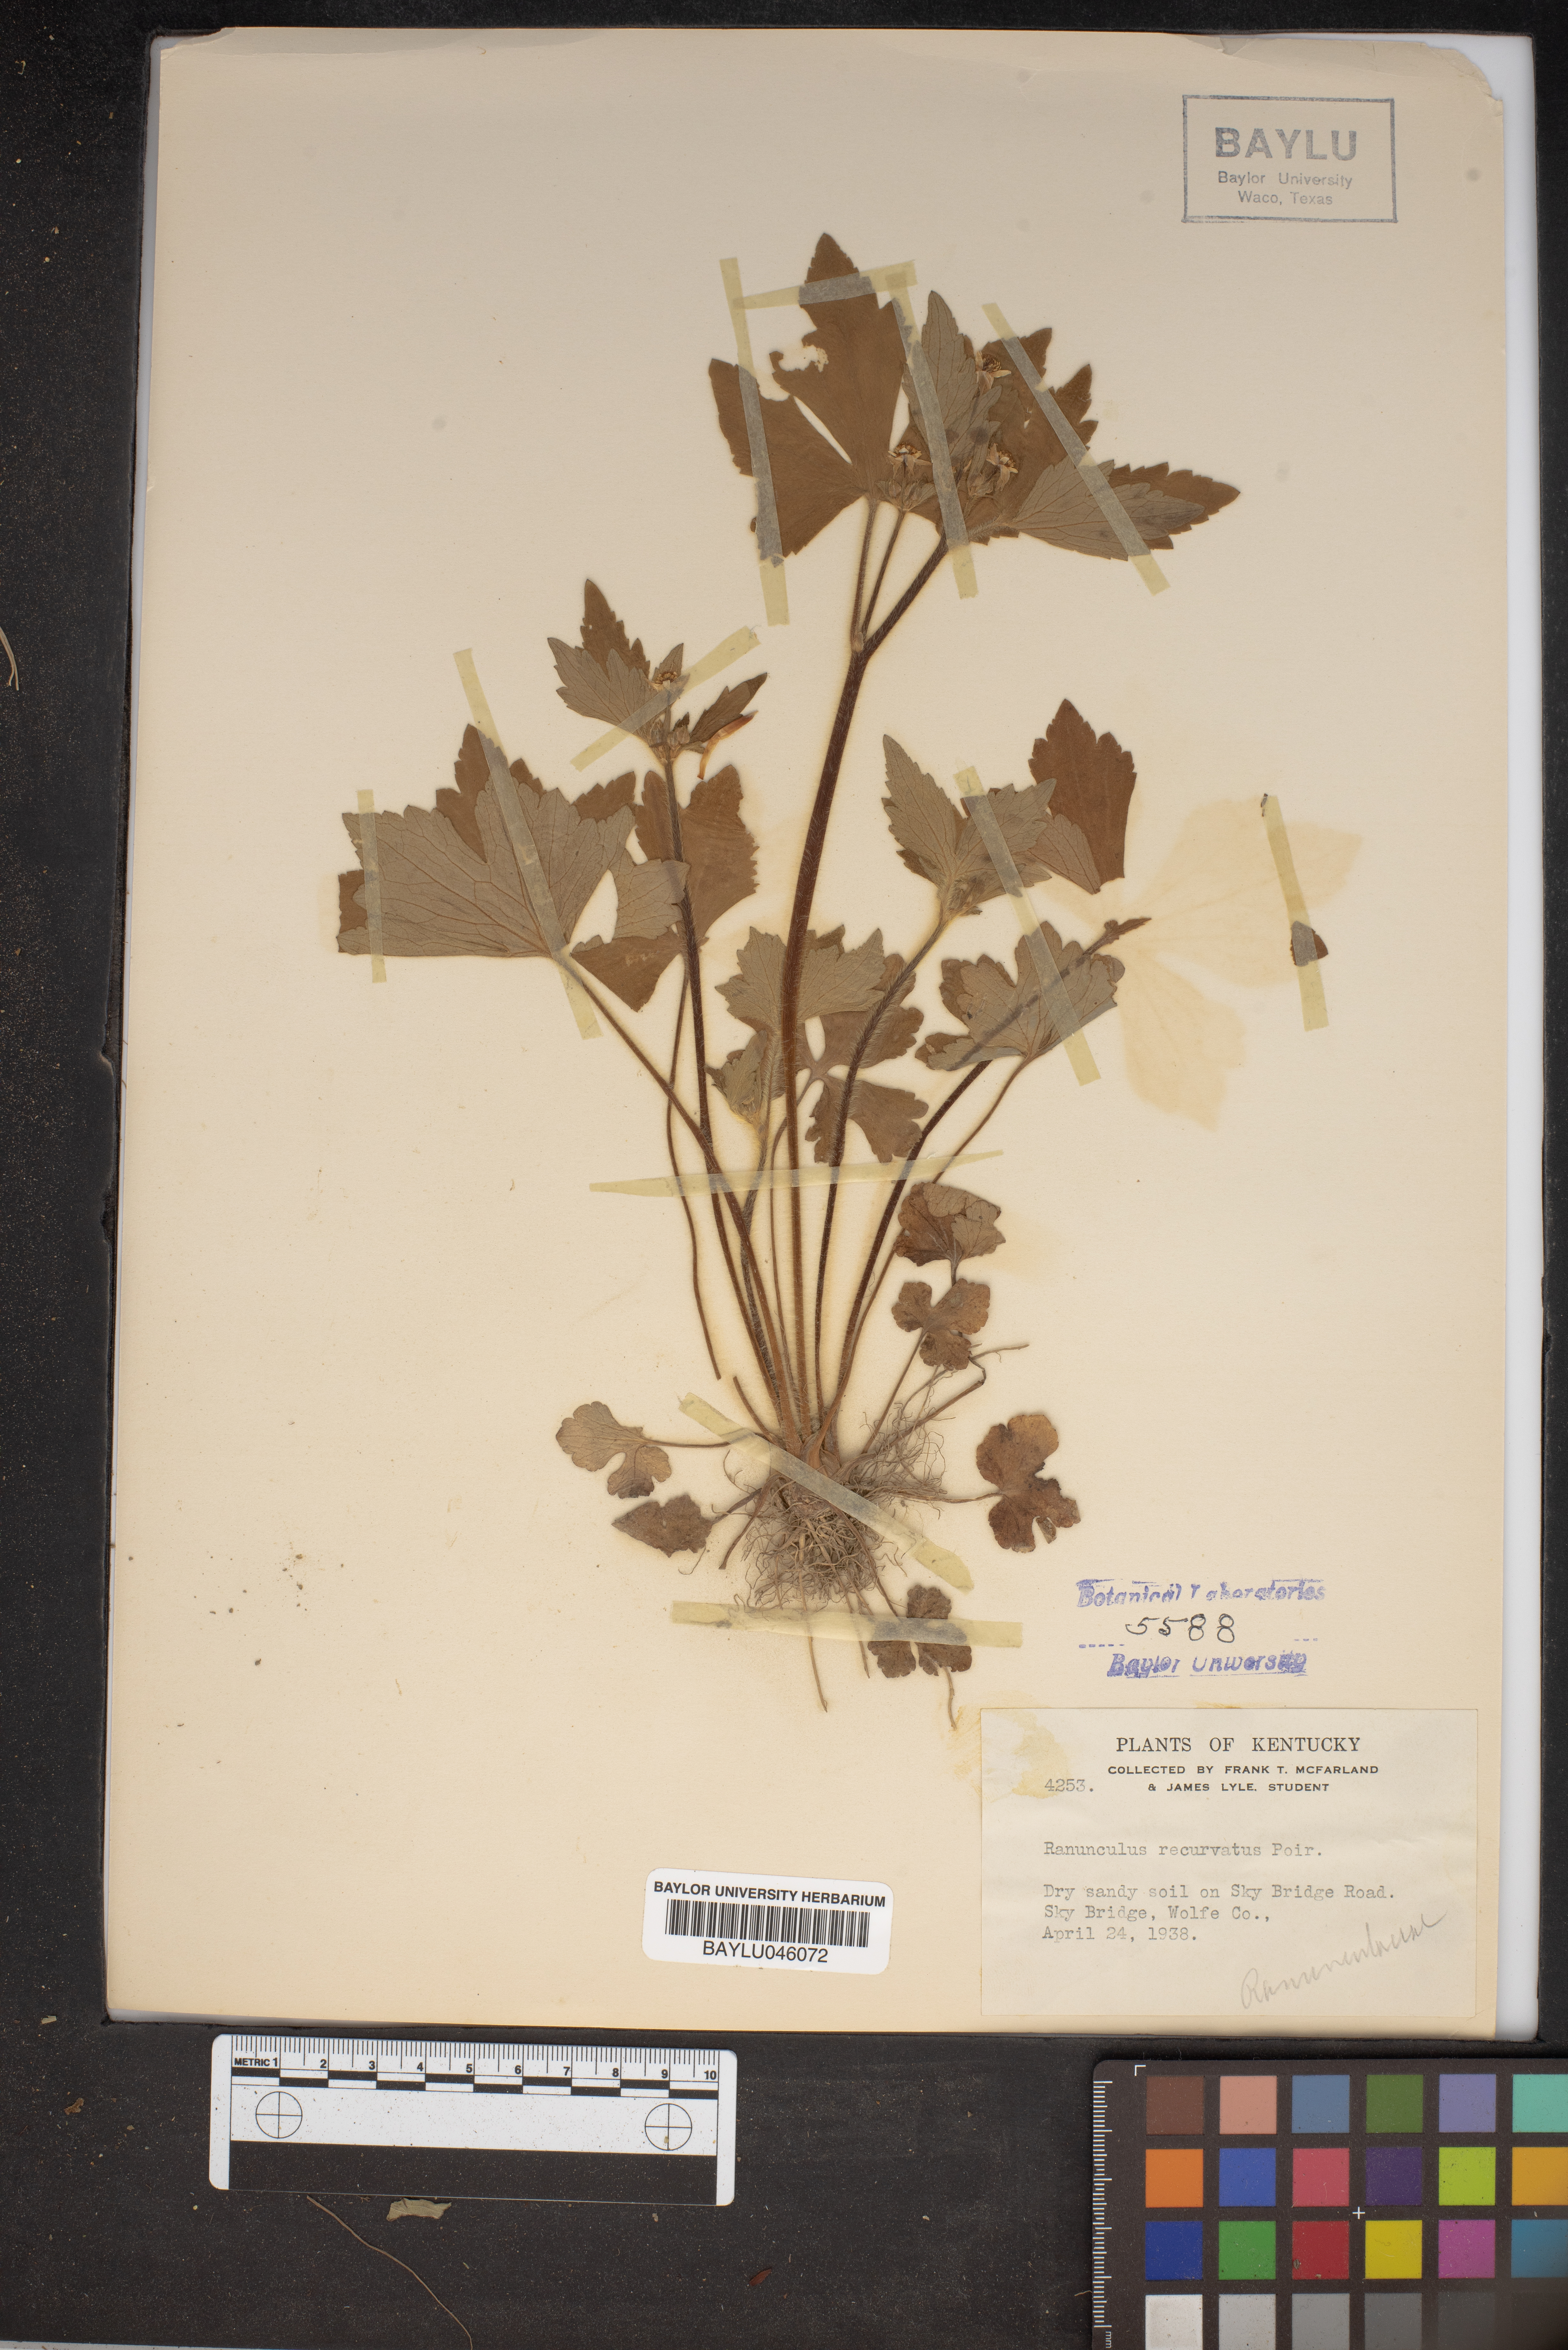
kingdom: Plantae
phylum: Tracheophyta
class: Magnoliopsida
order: Ranunculales
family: Ranunculaceae
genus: Ranunculus
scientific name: Ranunculus recurvatus
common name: Blisterwort
